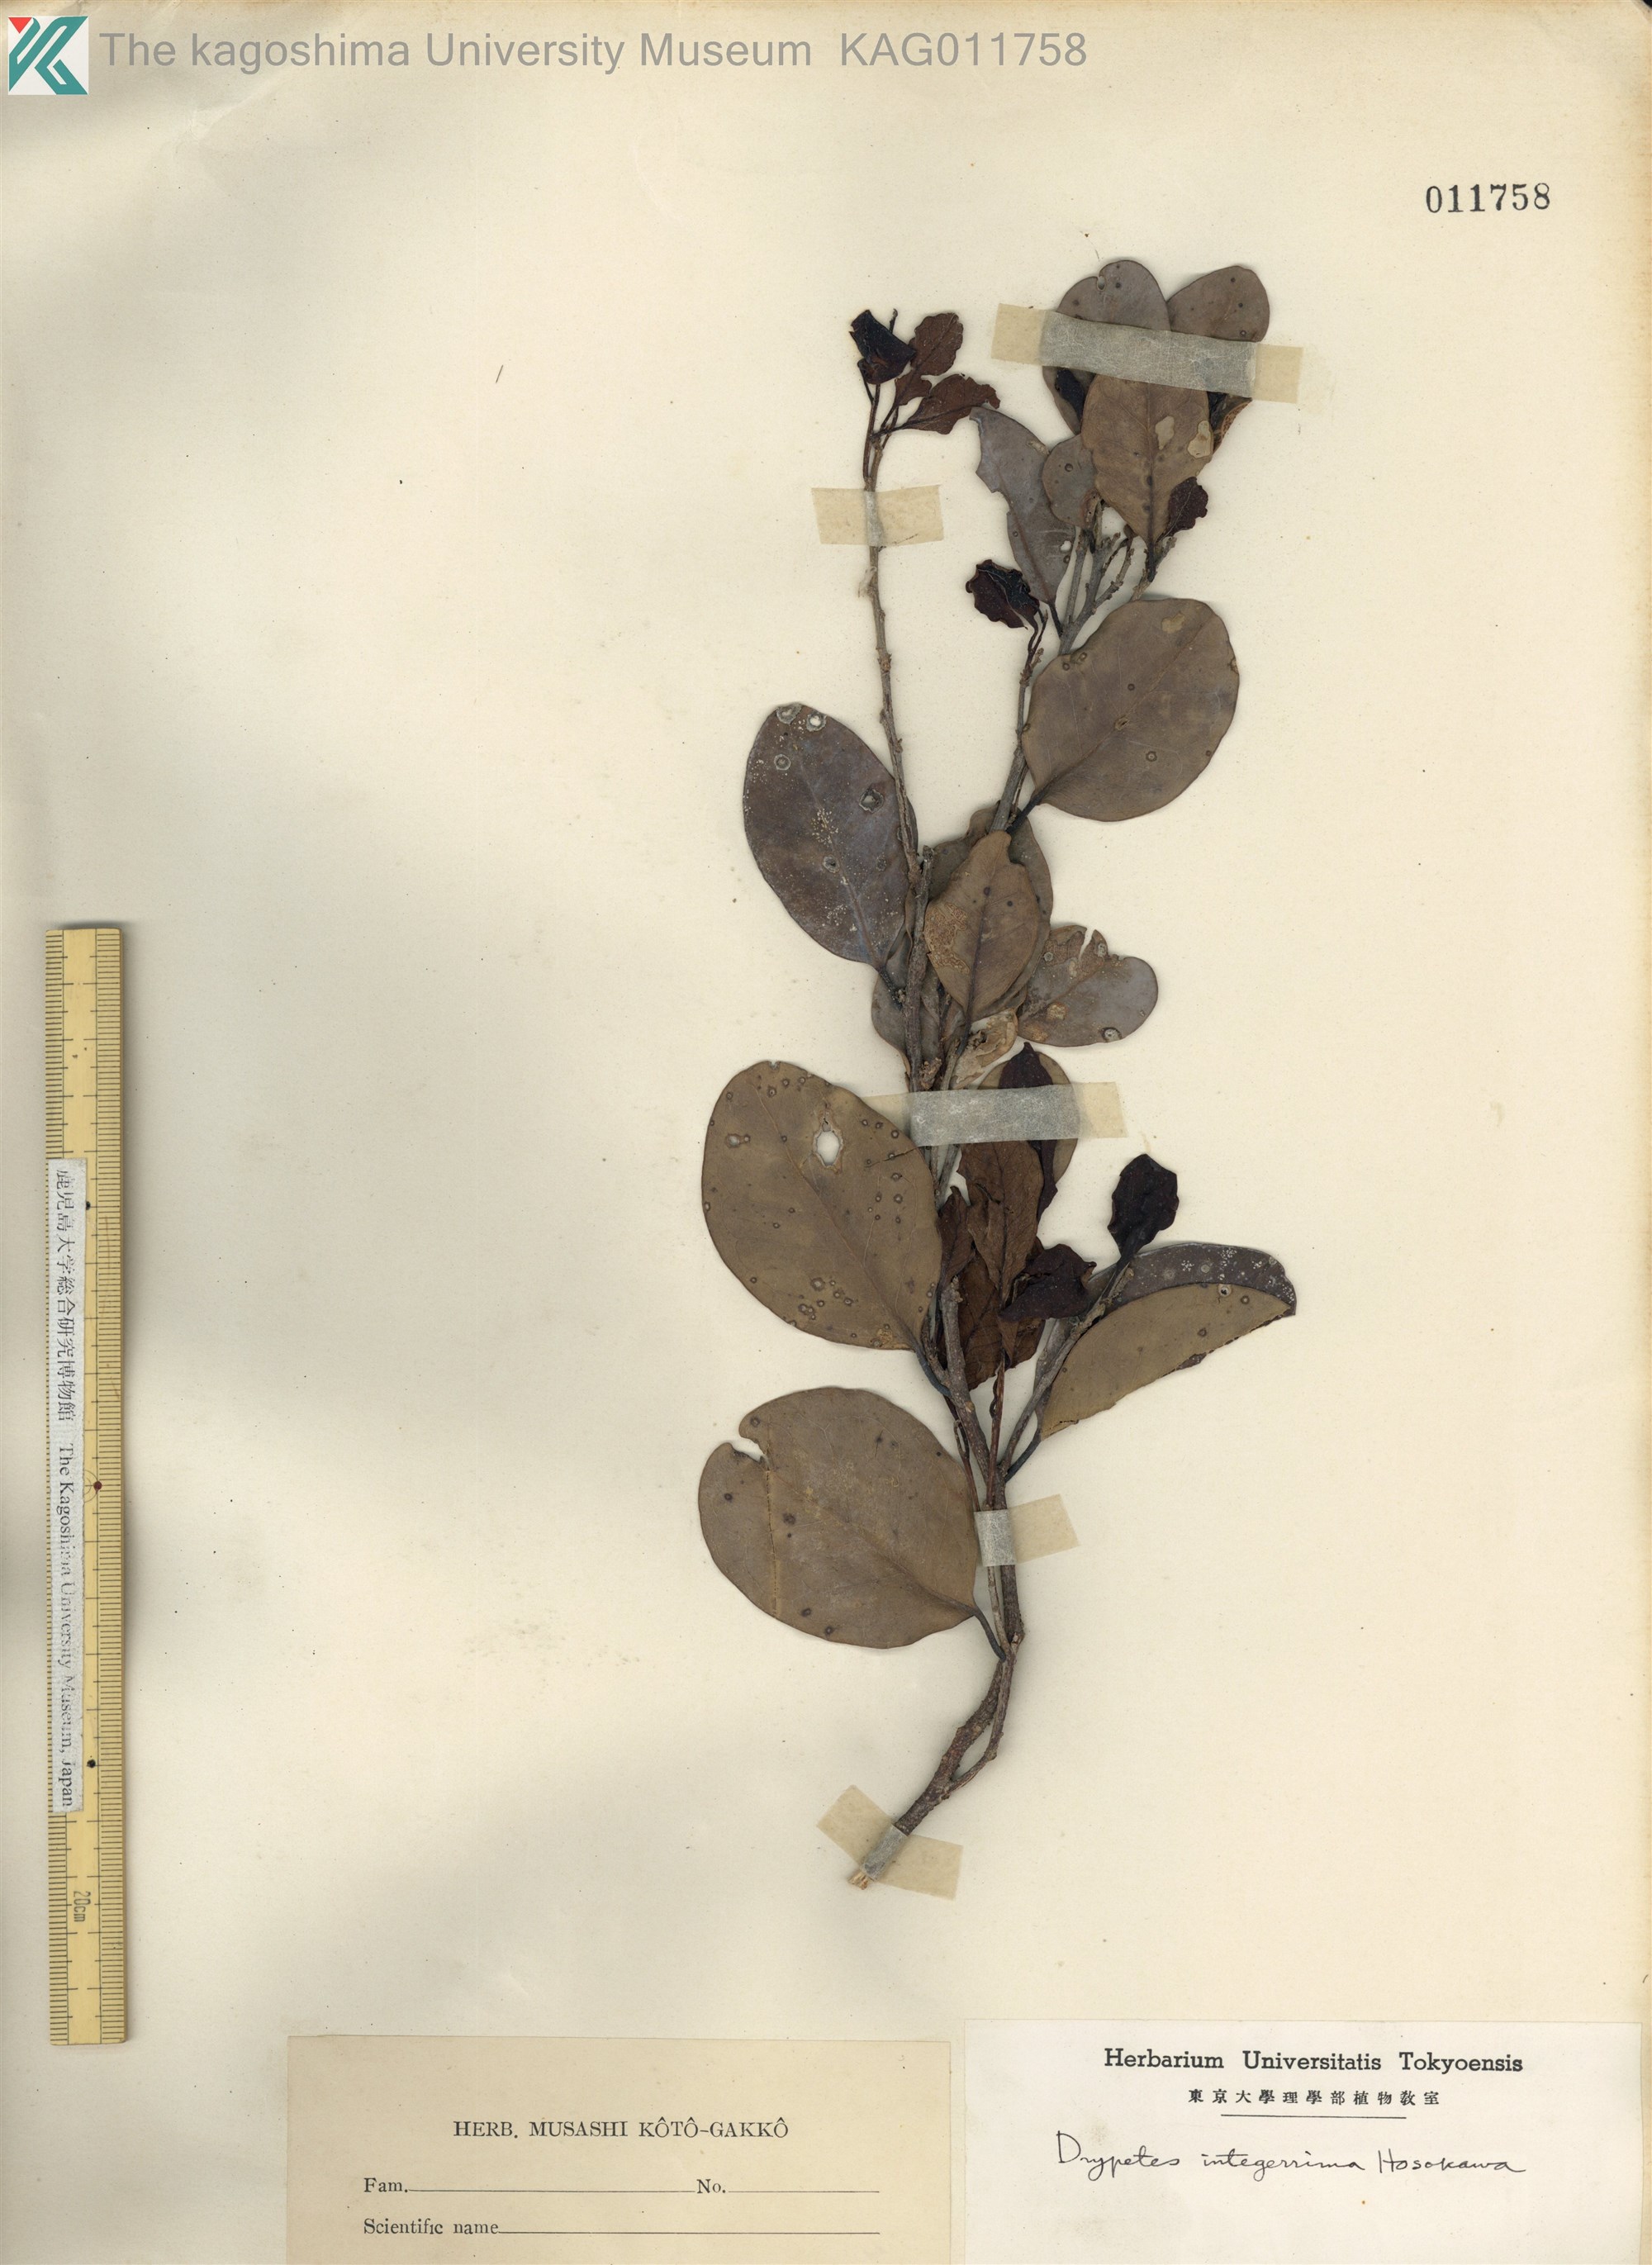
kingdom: Plantae
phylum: Tracheophyta
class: Magnoliopsida
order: Malpighiales
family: Putranjivaceae
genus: Drypetes
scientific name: Drypetes integerrima
